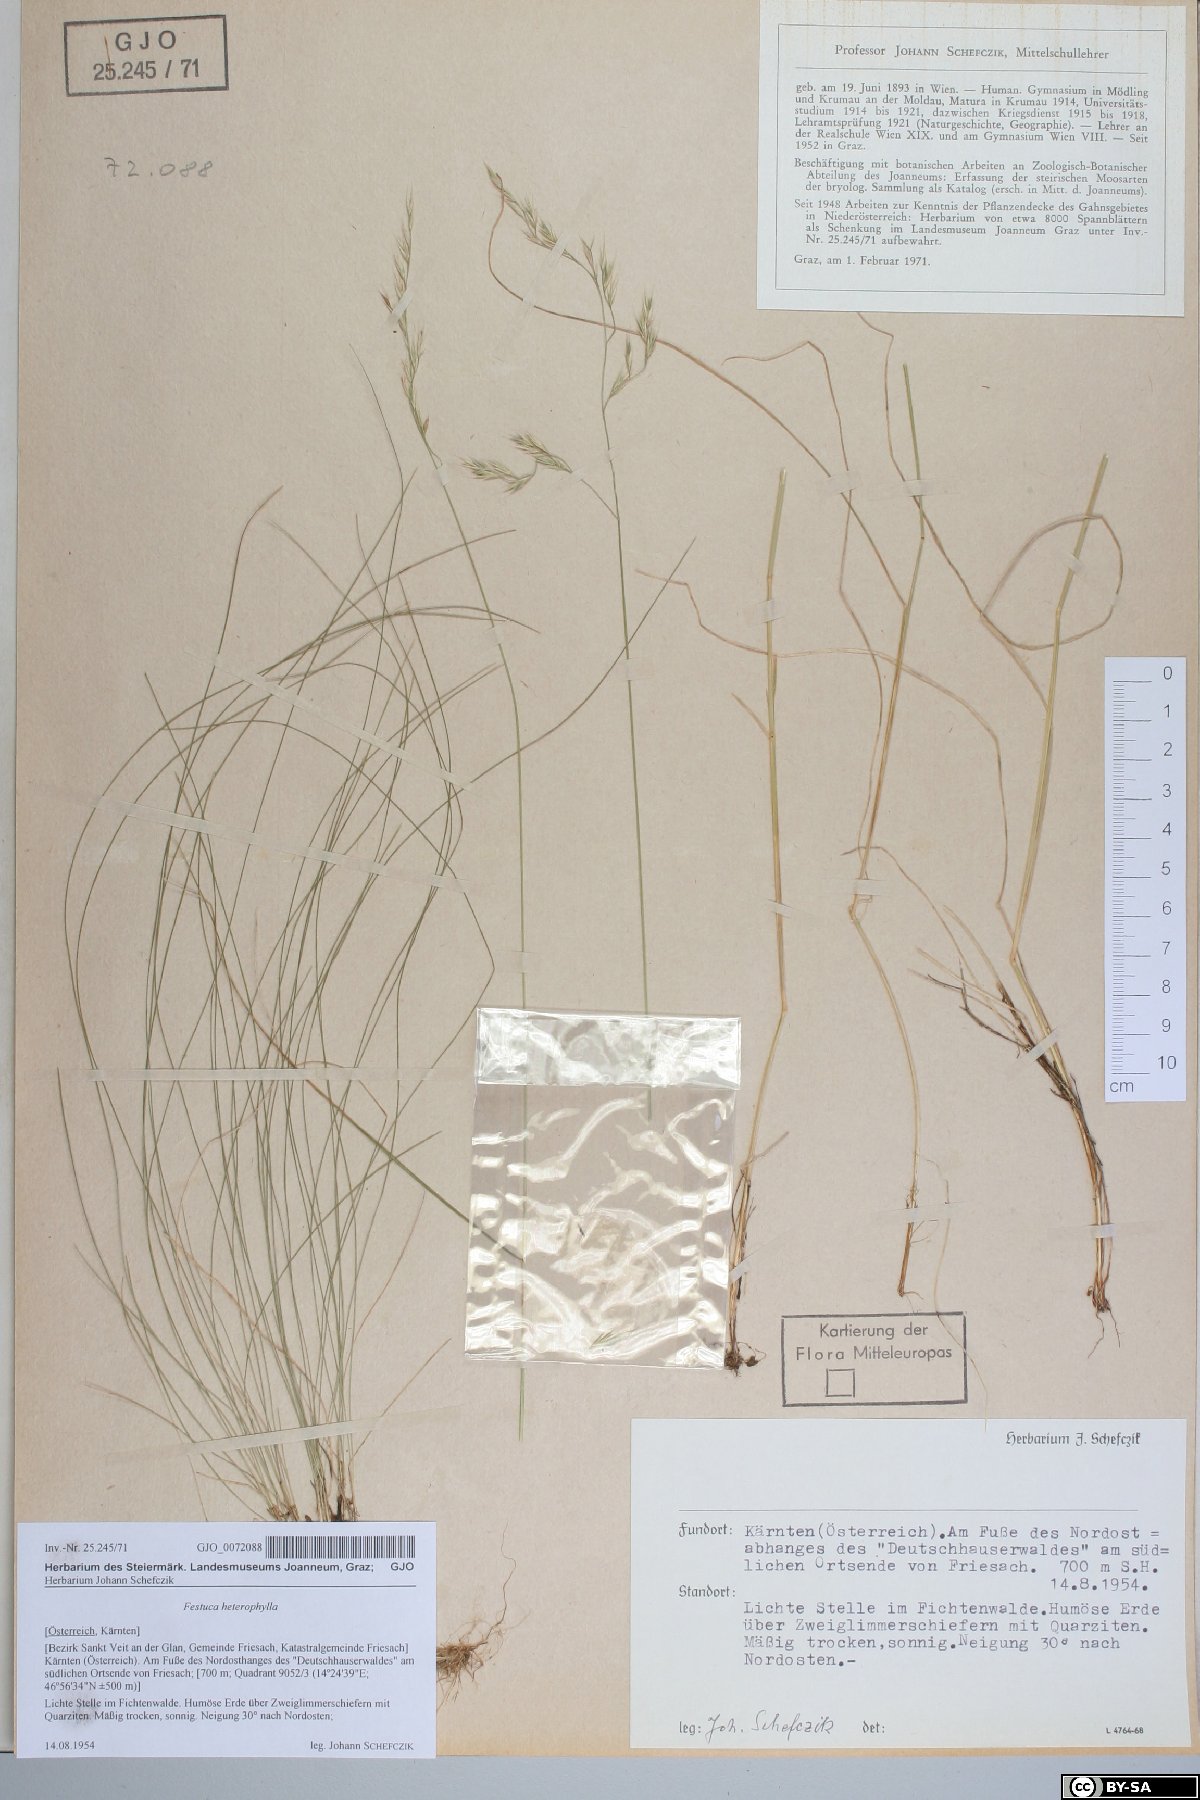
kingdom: Plantae
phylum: Tracheophyta
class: Liliopsida
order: Poales
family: Poaceae
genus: Festuca
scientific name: Festuca heterophylla
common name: Various-leaved fescue
